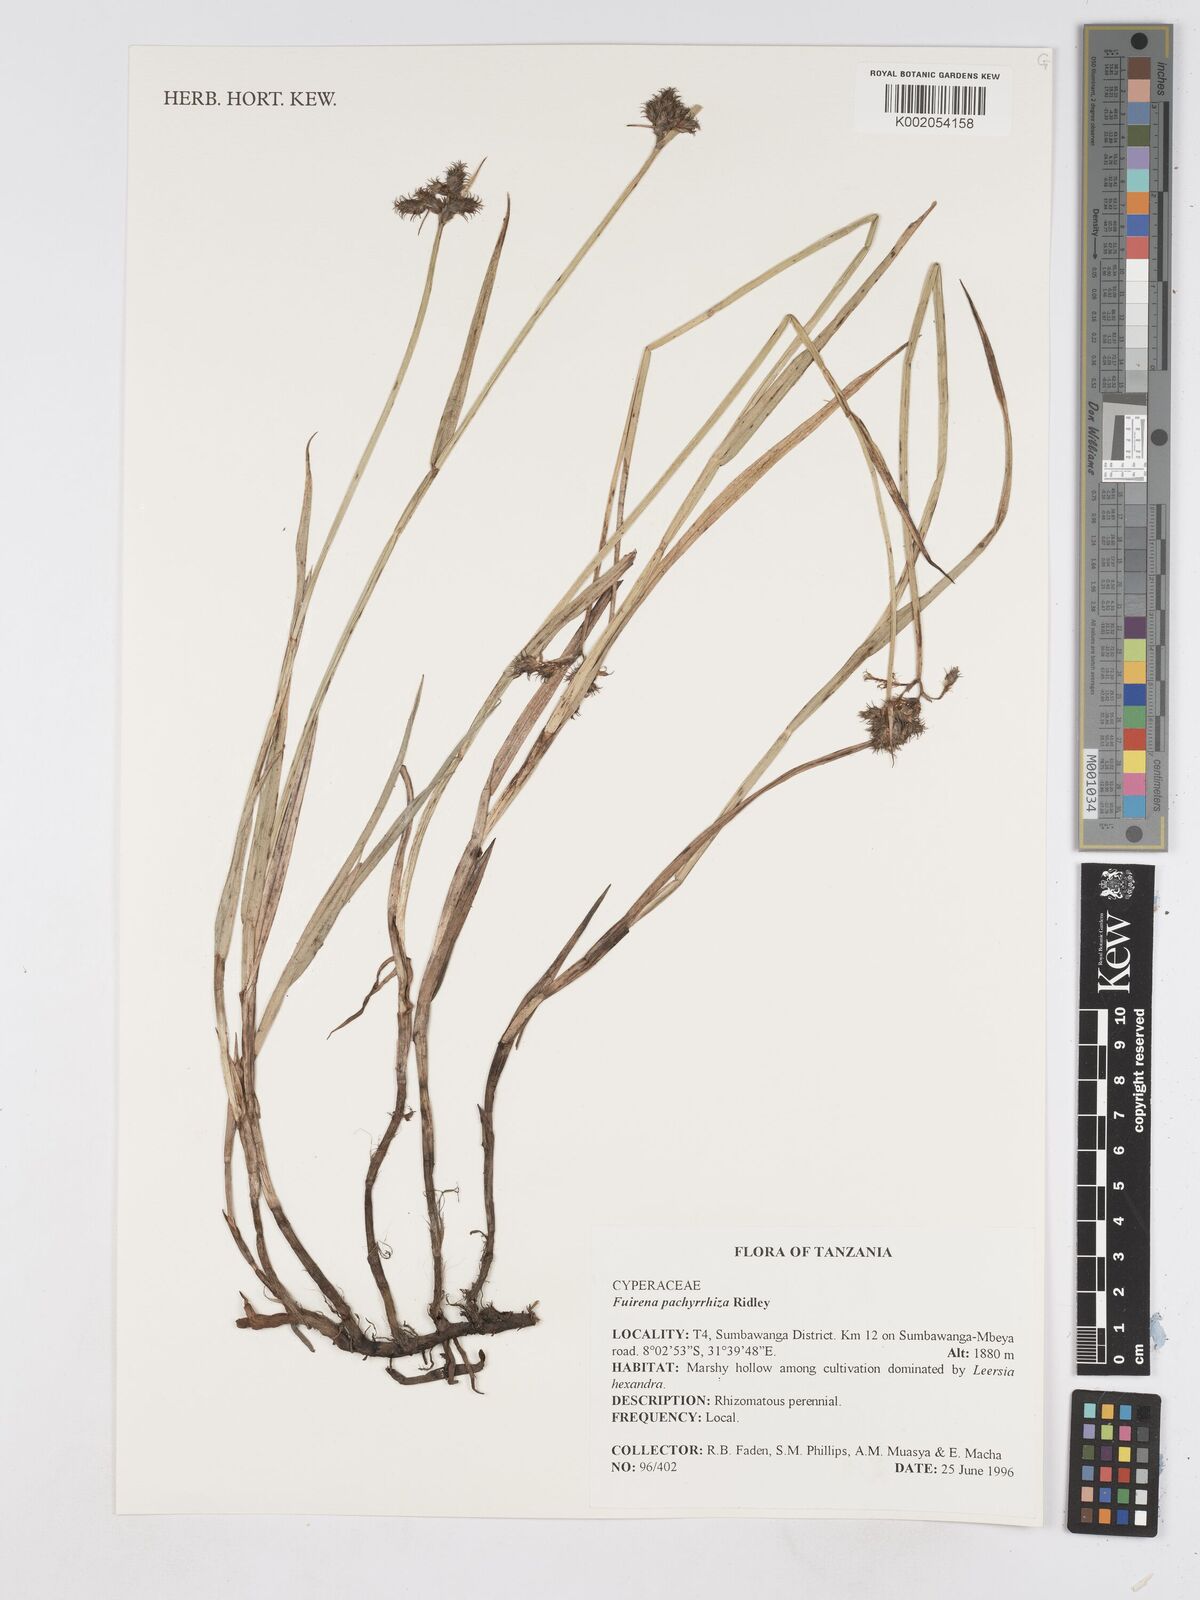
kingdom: Plantae
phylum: Tracheophyta
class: Liliopsida
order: Poales
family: Cyperaceae
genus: Fuirena
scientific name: Fuirena pachyrrhiza
